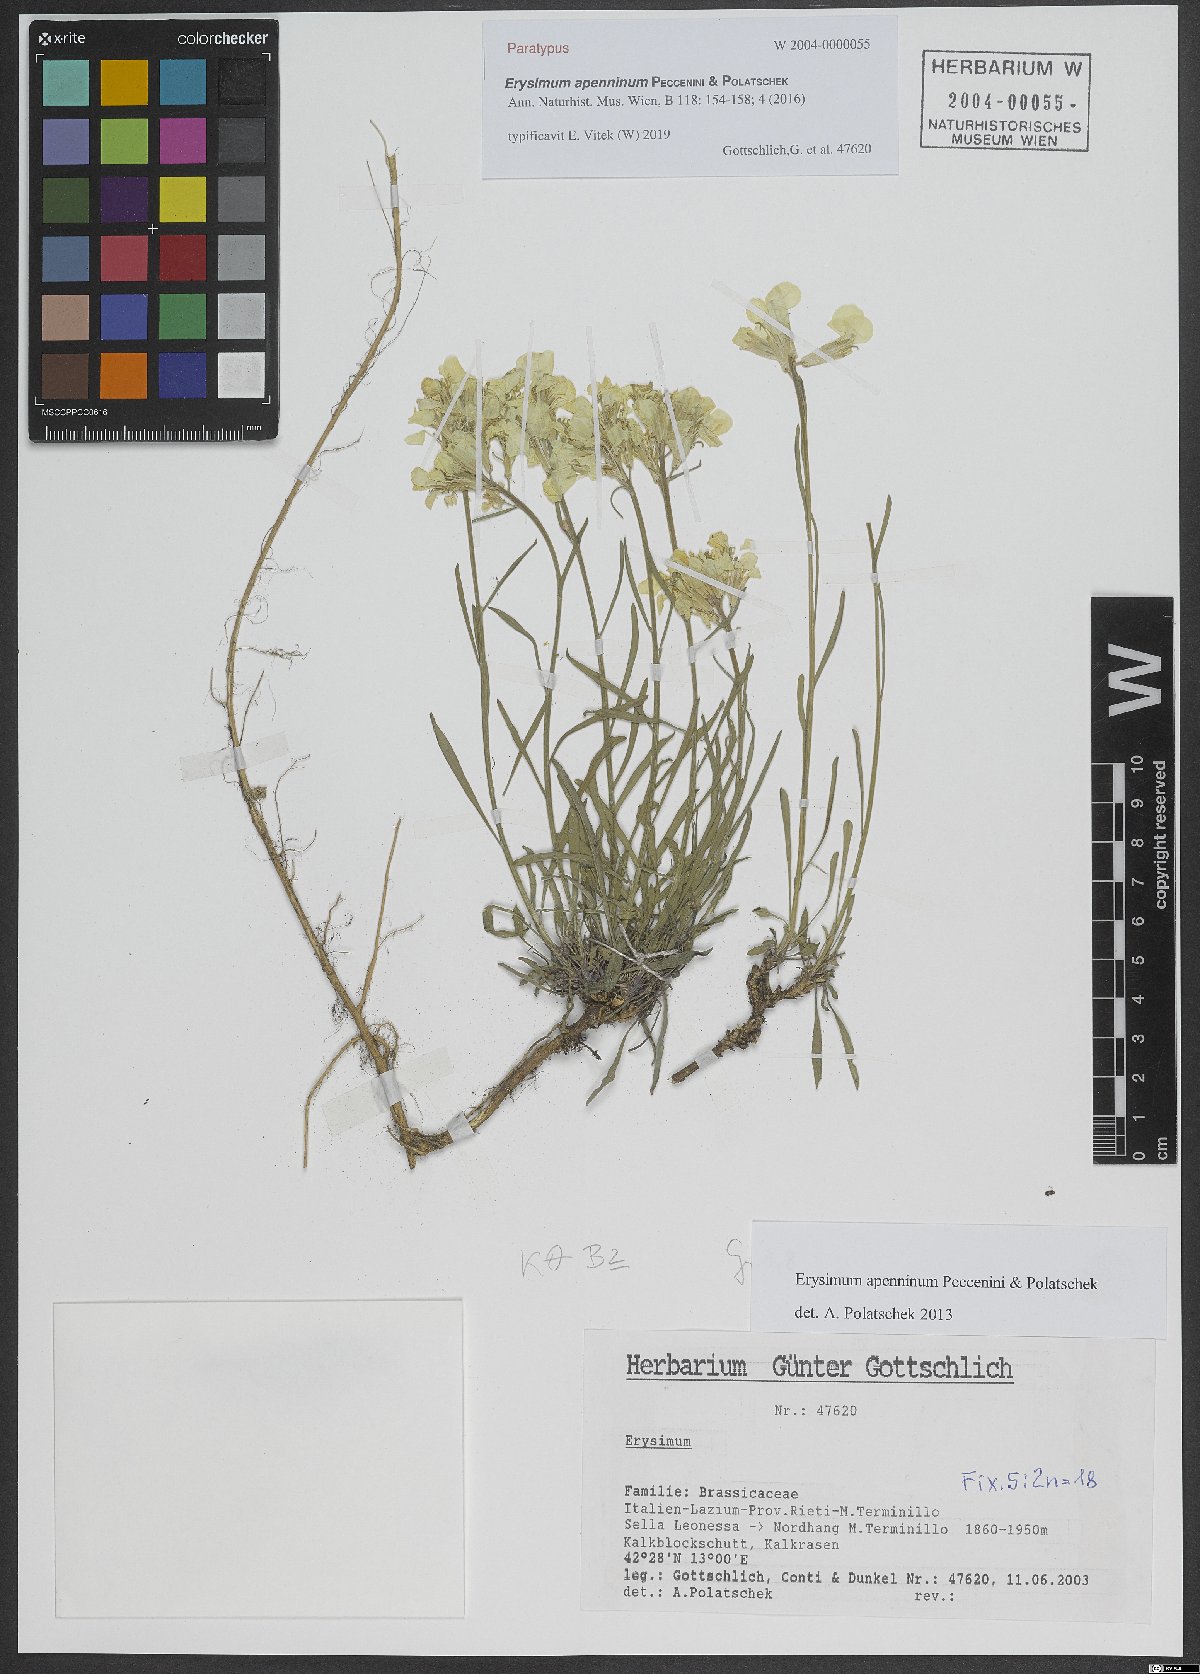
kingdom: Plantae
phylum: Tracheophyta
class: Magnoliopsida
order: Brassicales
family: Brassicaceae
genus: Erysimum
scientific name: Erysimum apenninum
